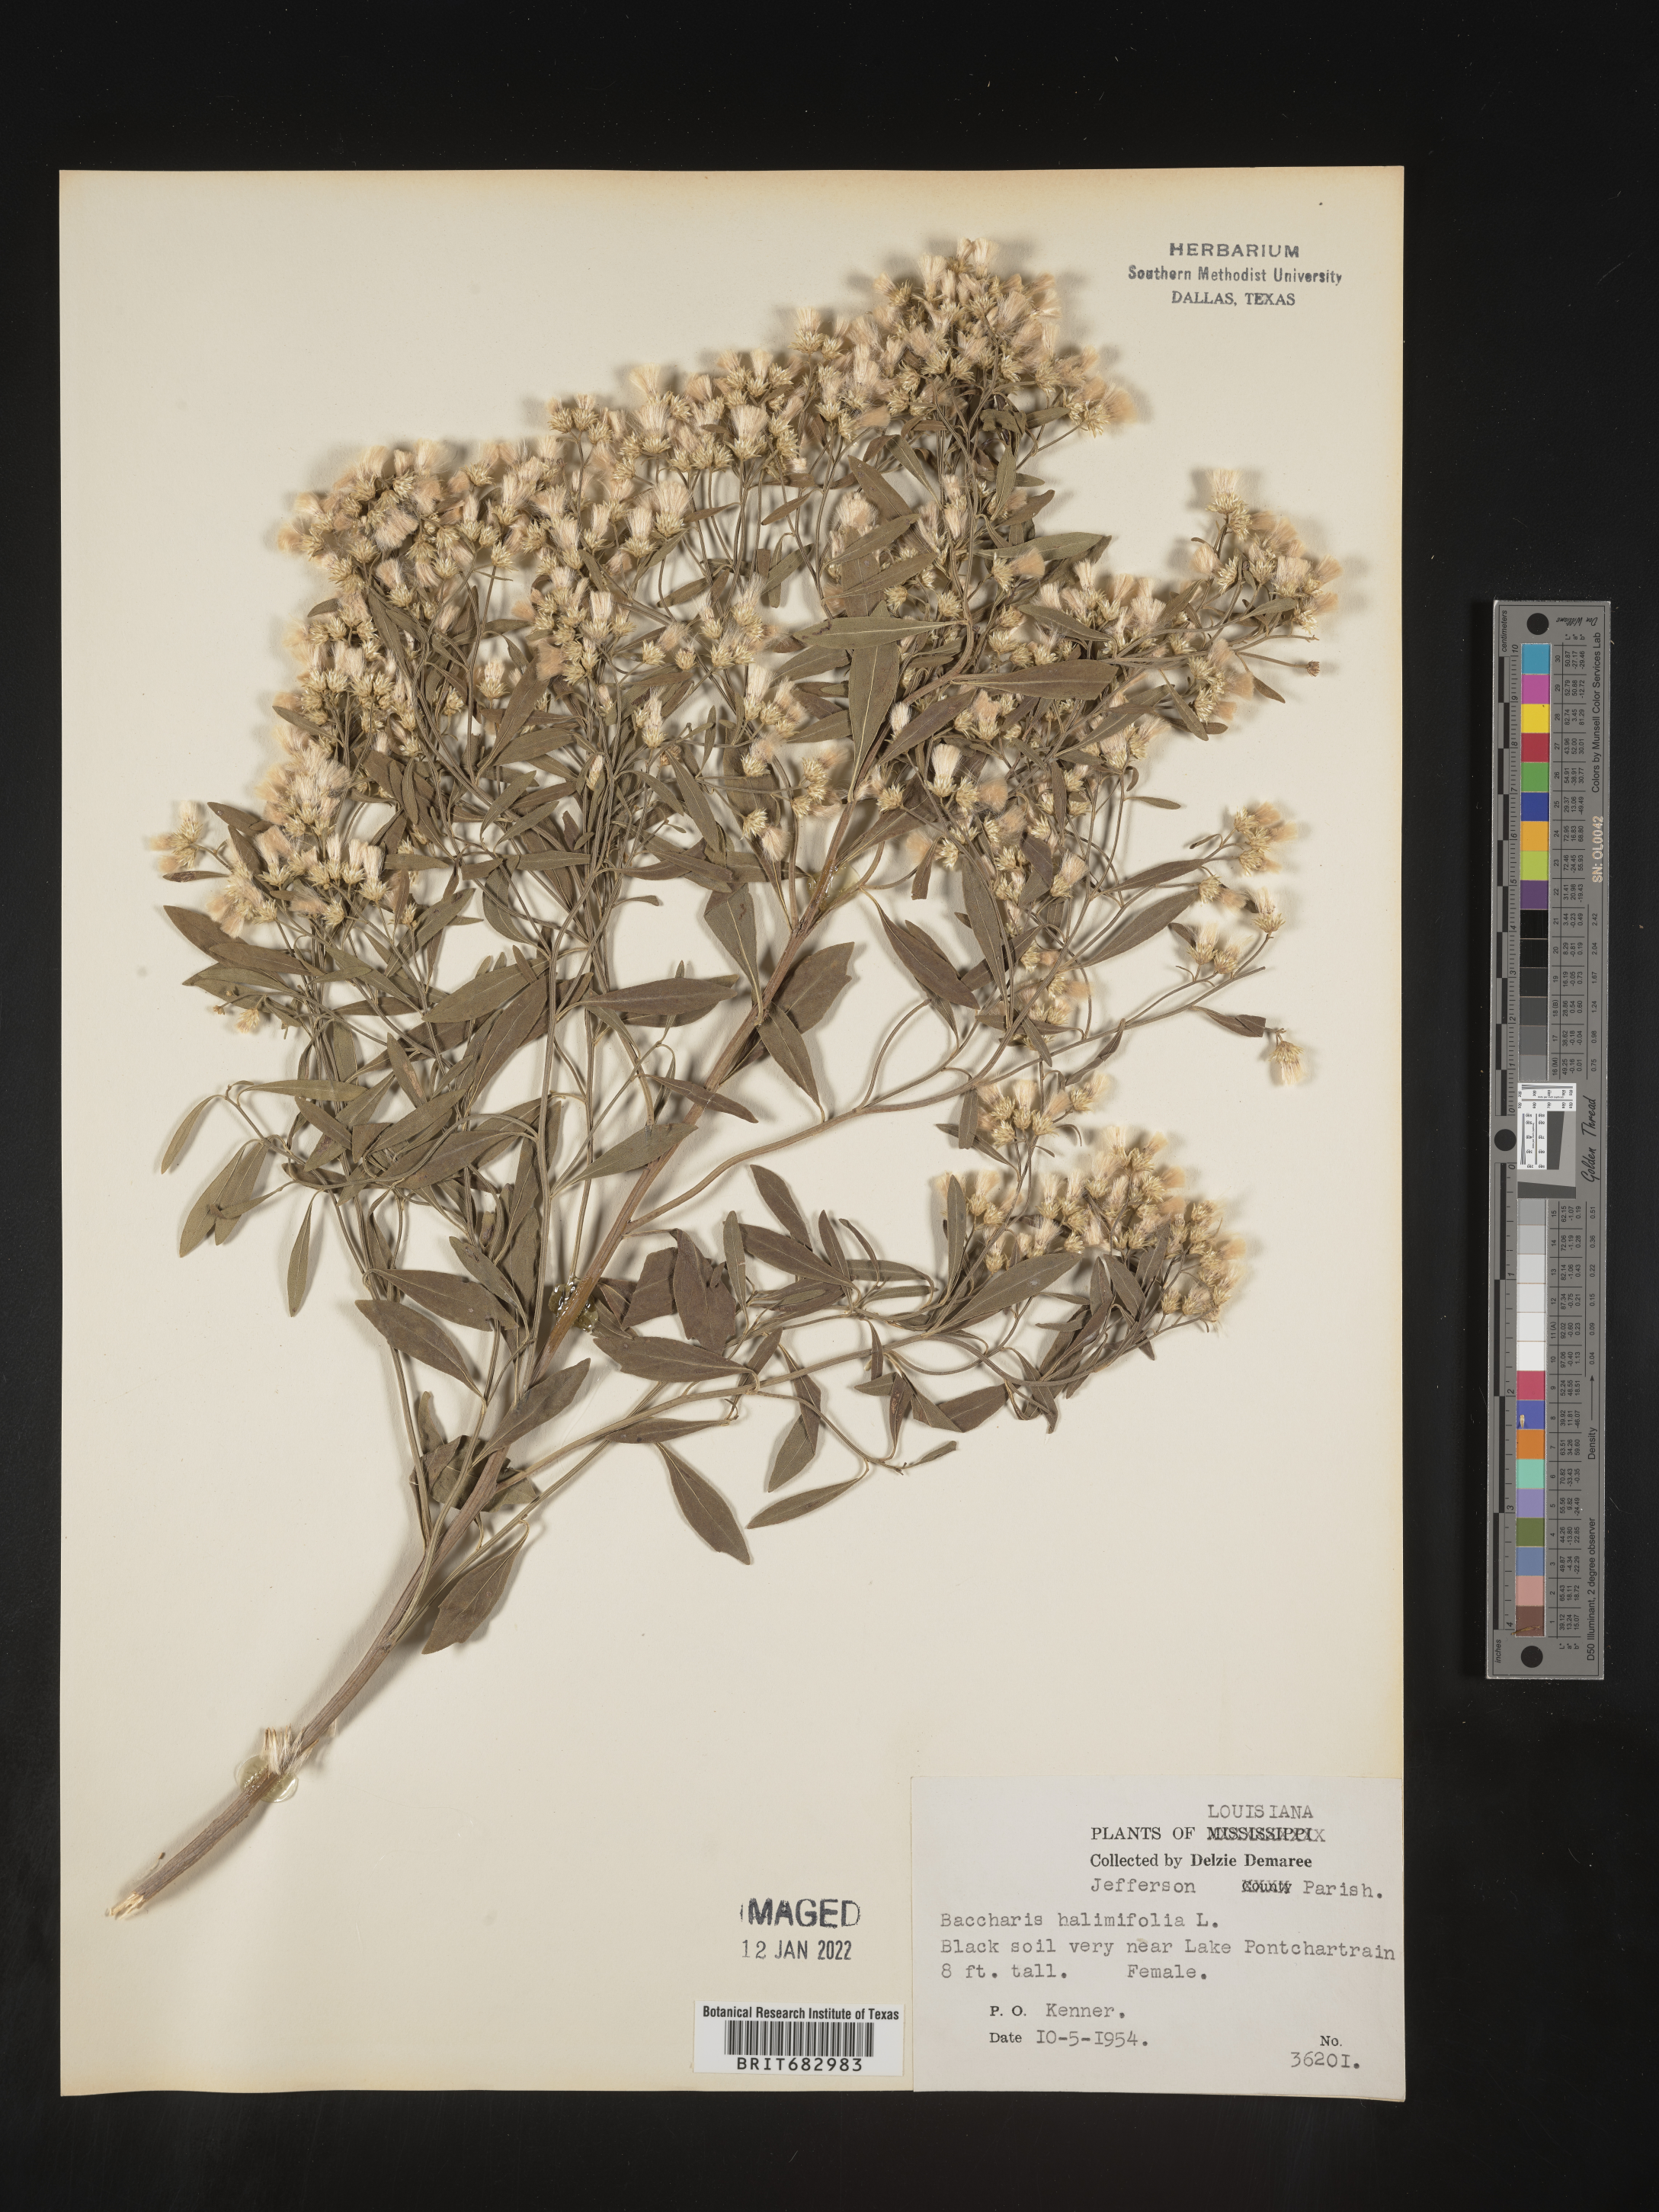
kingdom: Plantae
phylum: Tracheophyta
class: Magnoliopsida
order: Asterales
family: Asteraceae
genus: Nidorella
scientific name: Nidorella ivifolia
